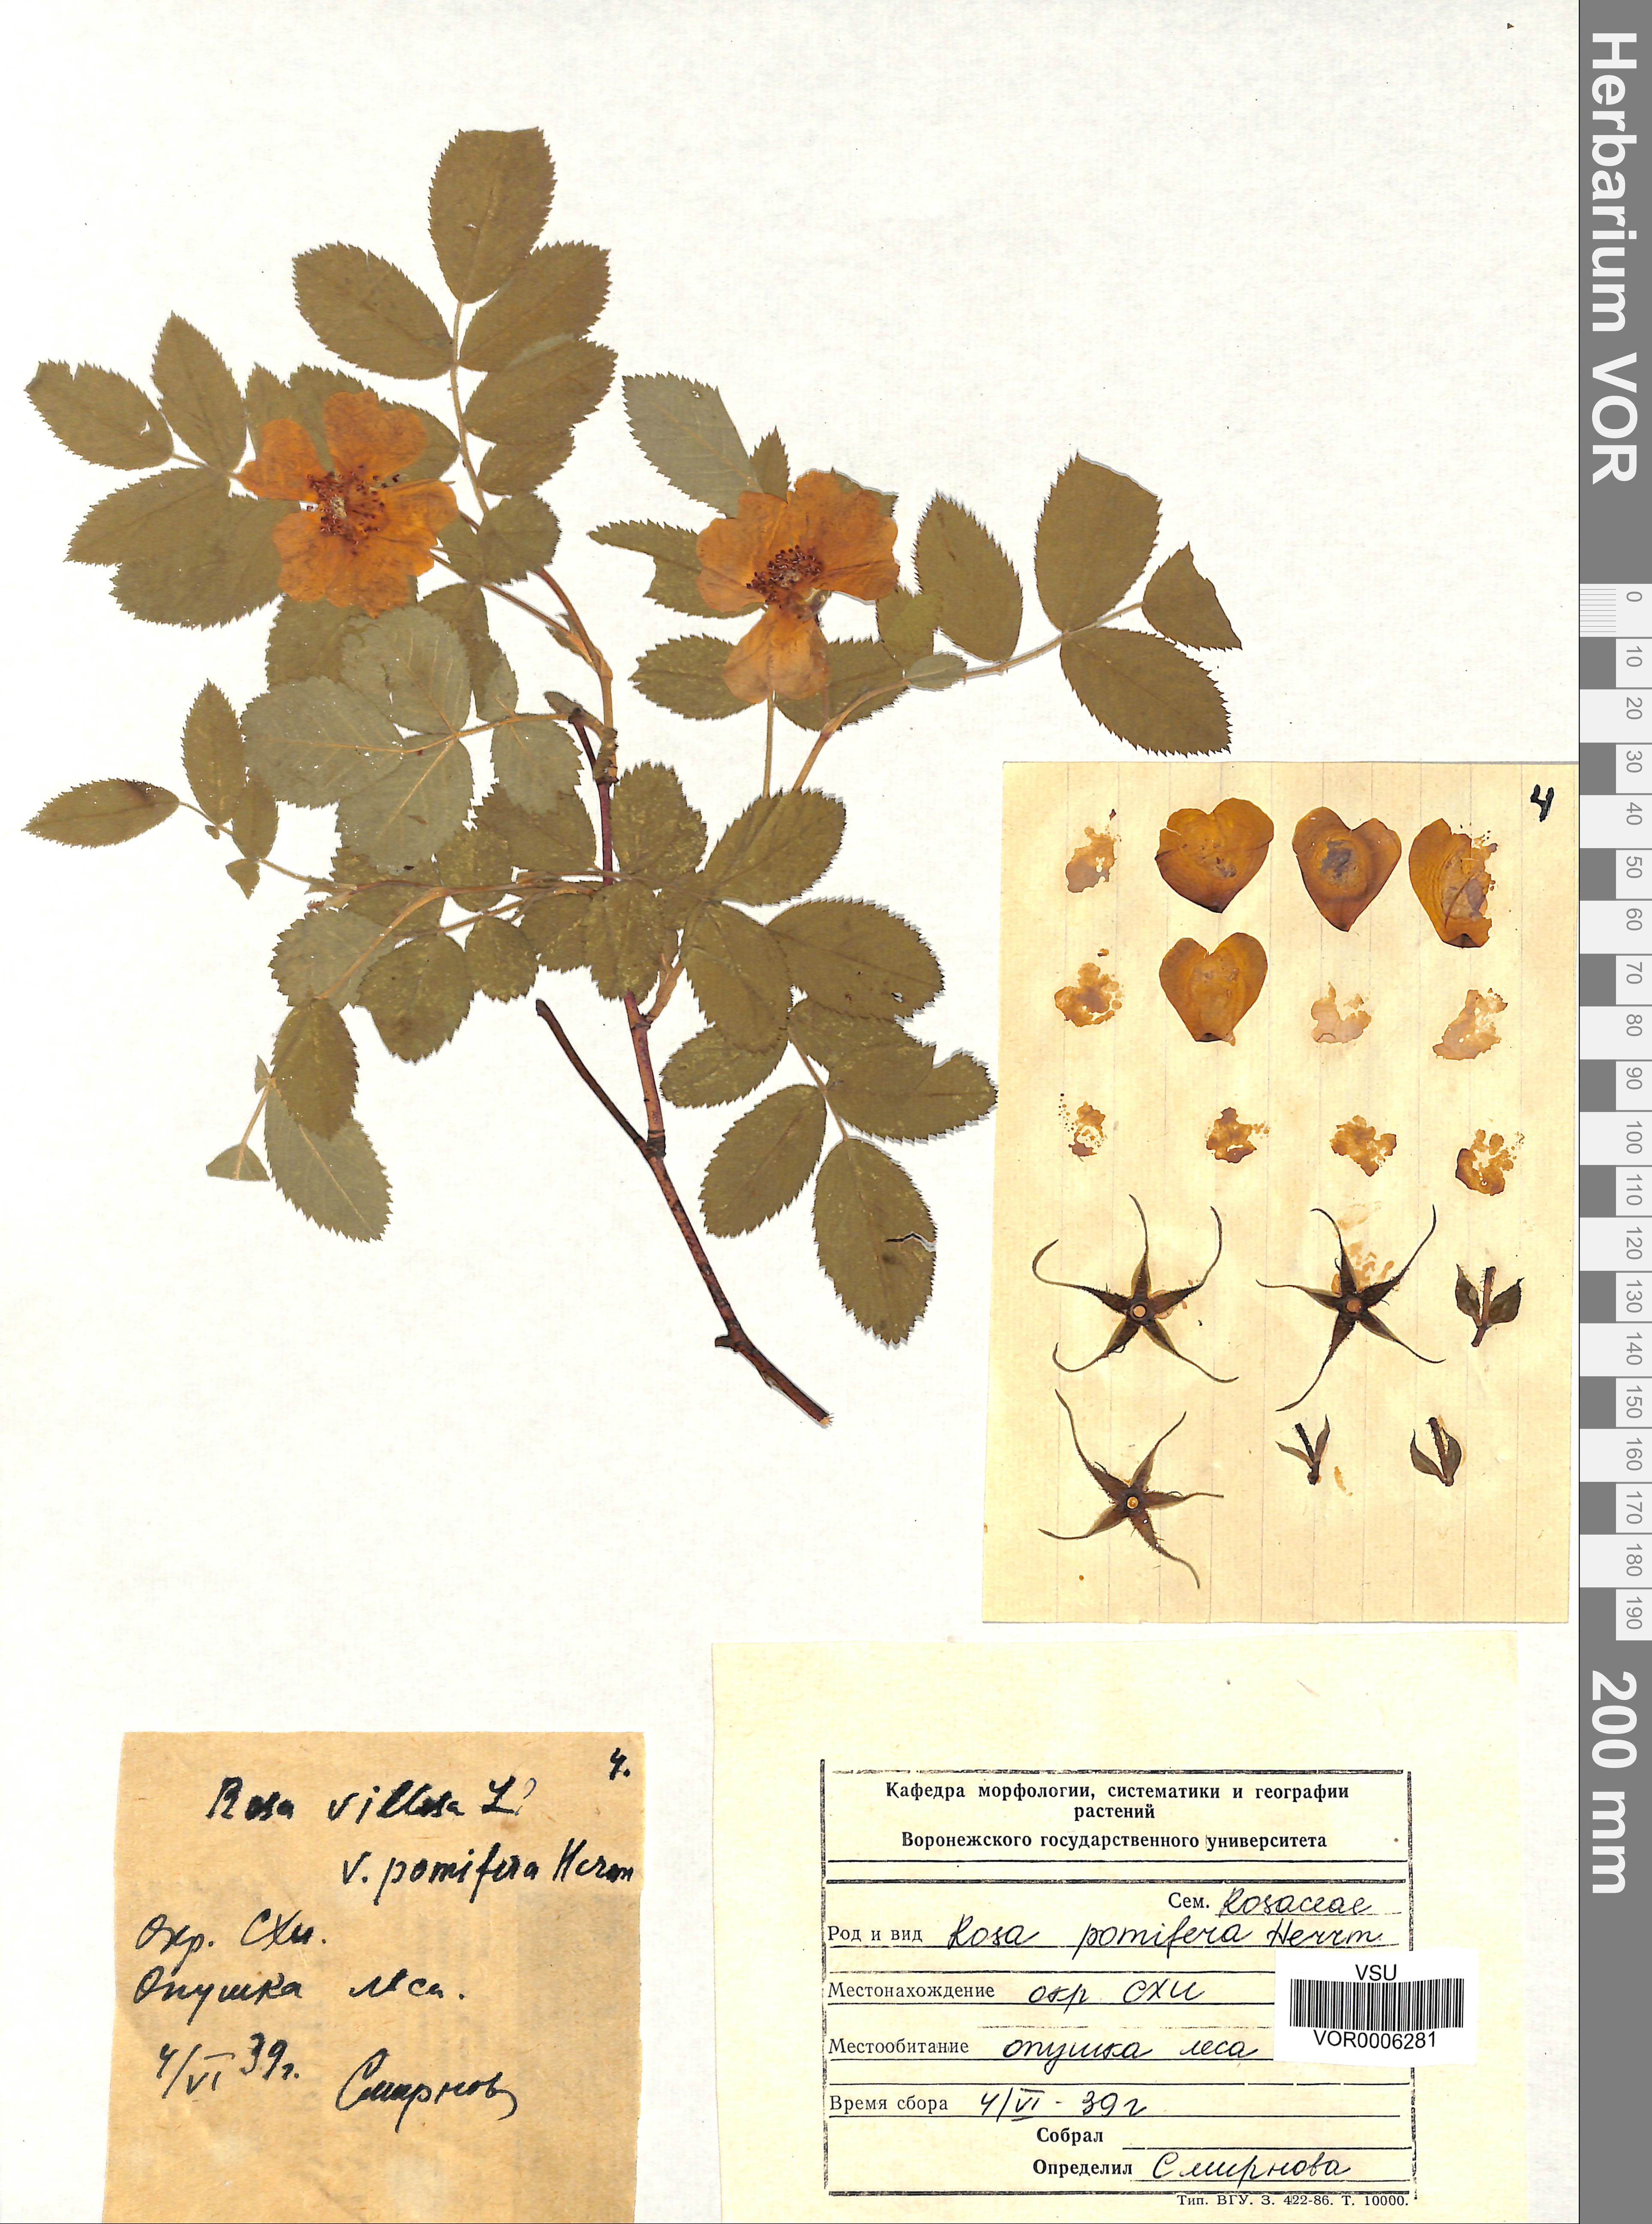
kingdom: Plantae
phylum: Tracheophyta
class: Magnoliopsida
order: Rosales
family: Rosaceae
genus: Rosa
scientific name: Rosa villosa
